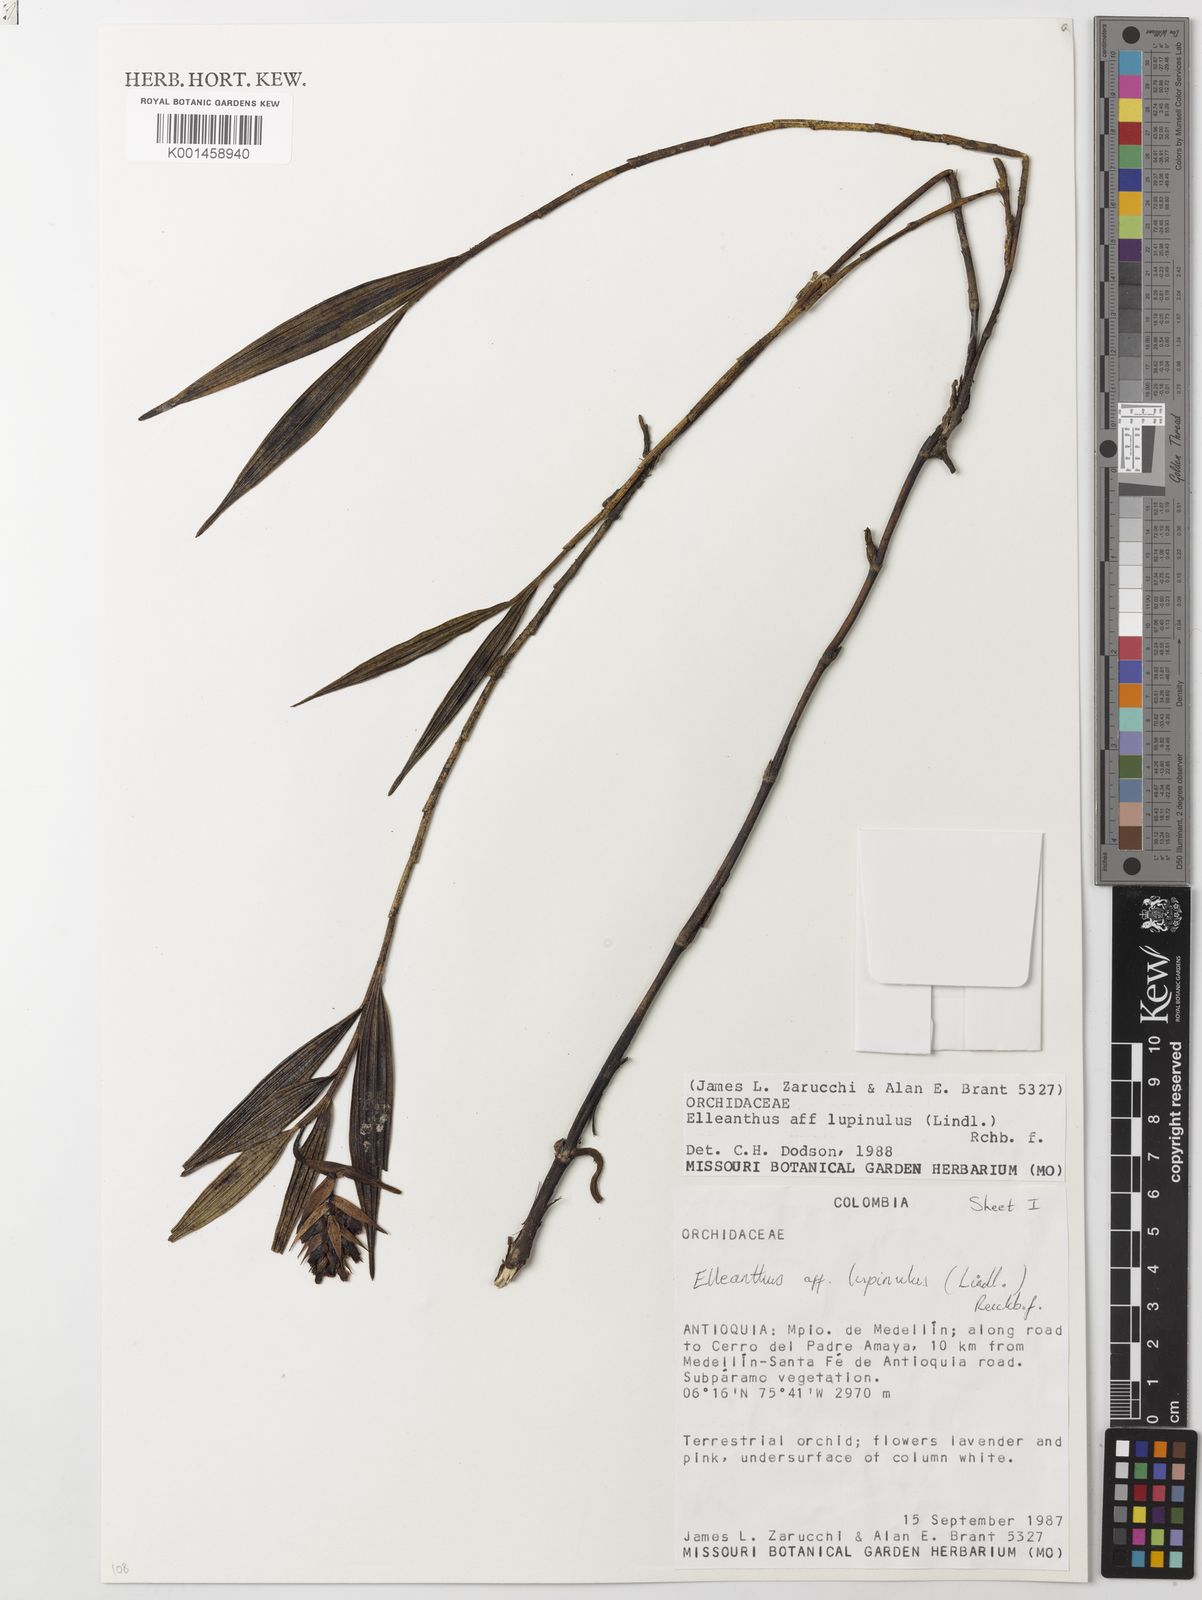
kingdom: Plantae
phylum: Tracheophyta
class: Liliopsida
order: Asparagales
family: Orchidaceae
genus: Elleanthus
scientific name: Elleanthus maculatus
